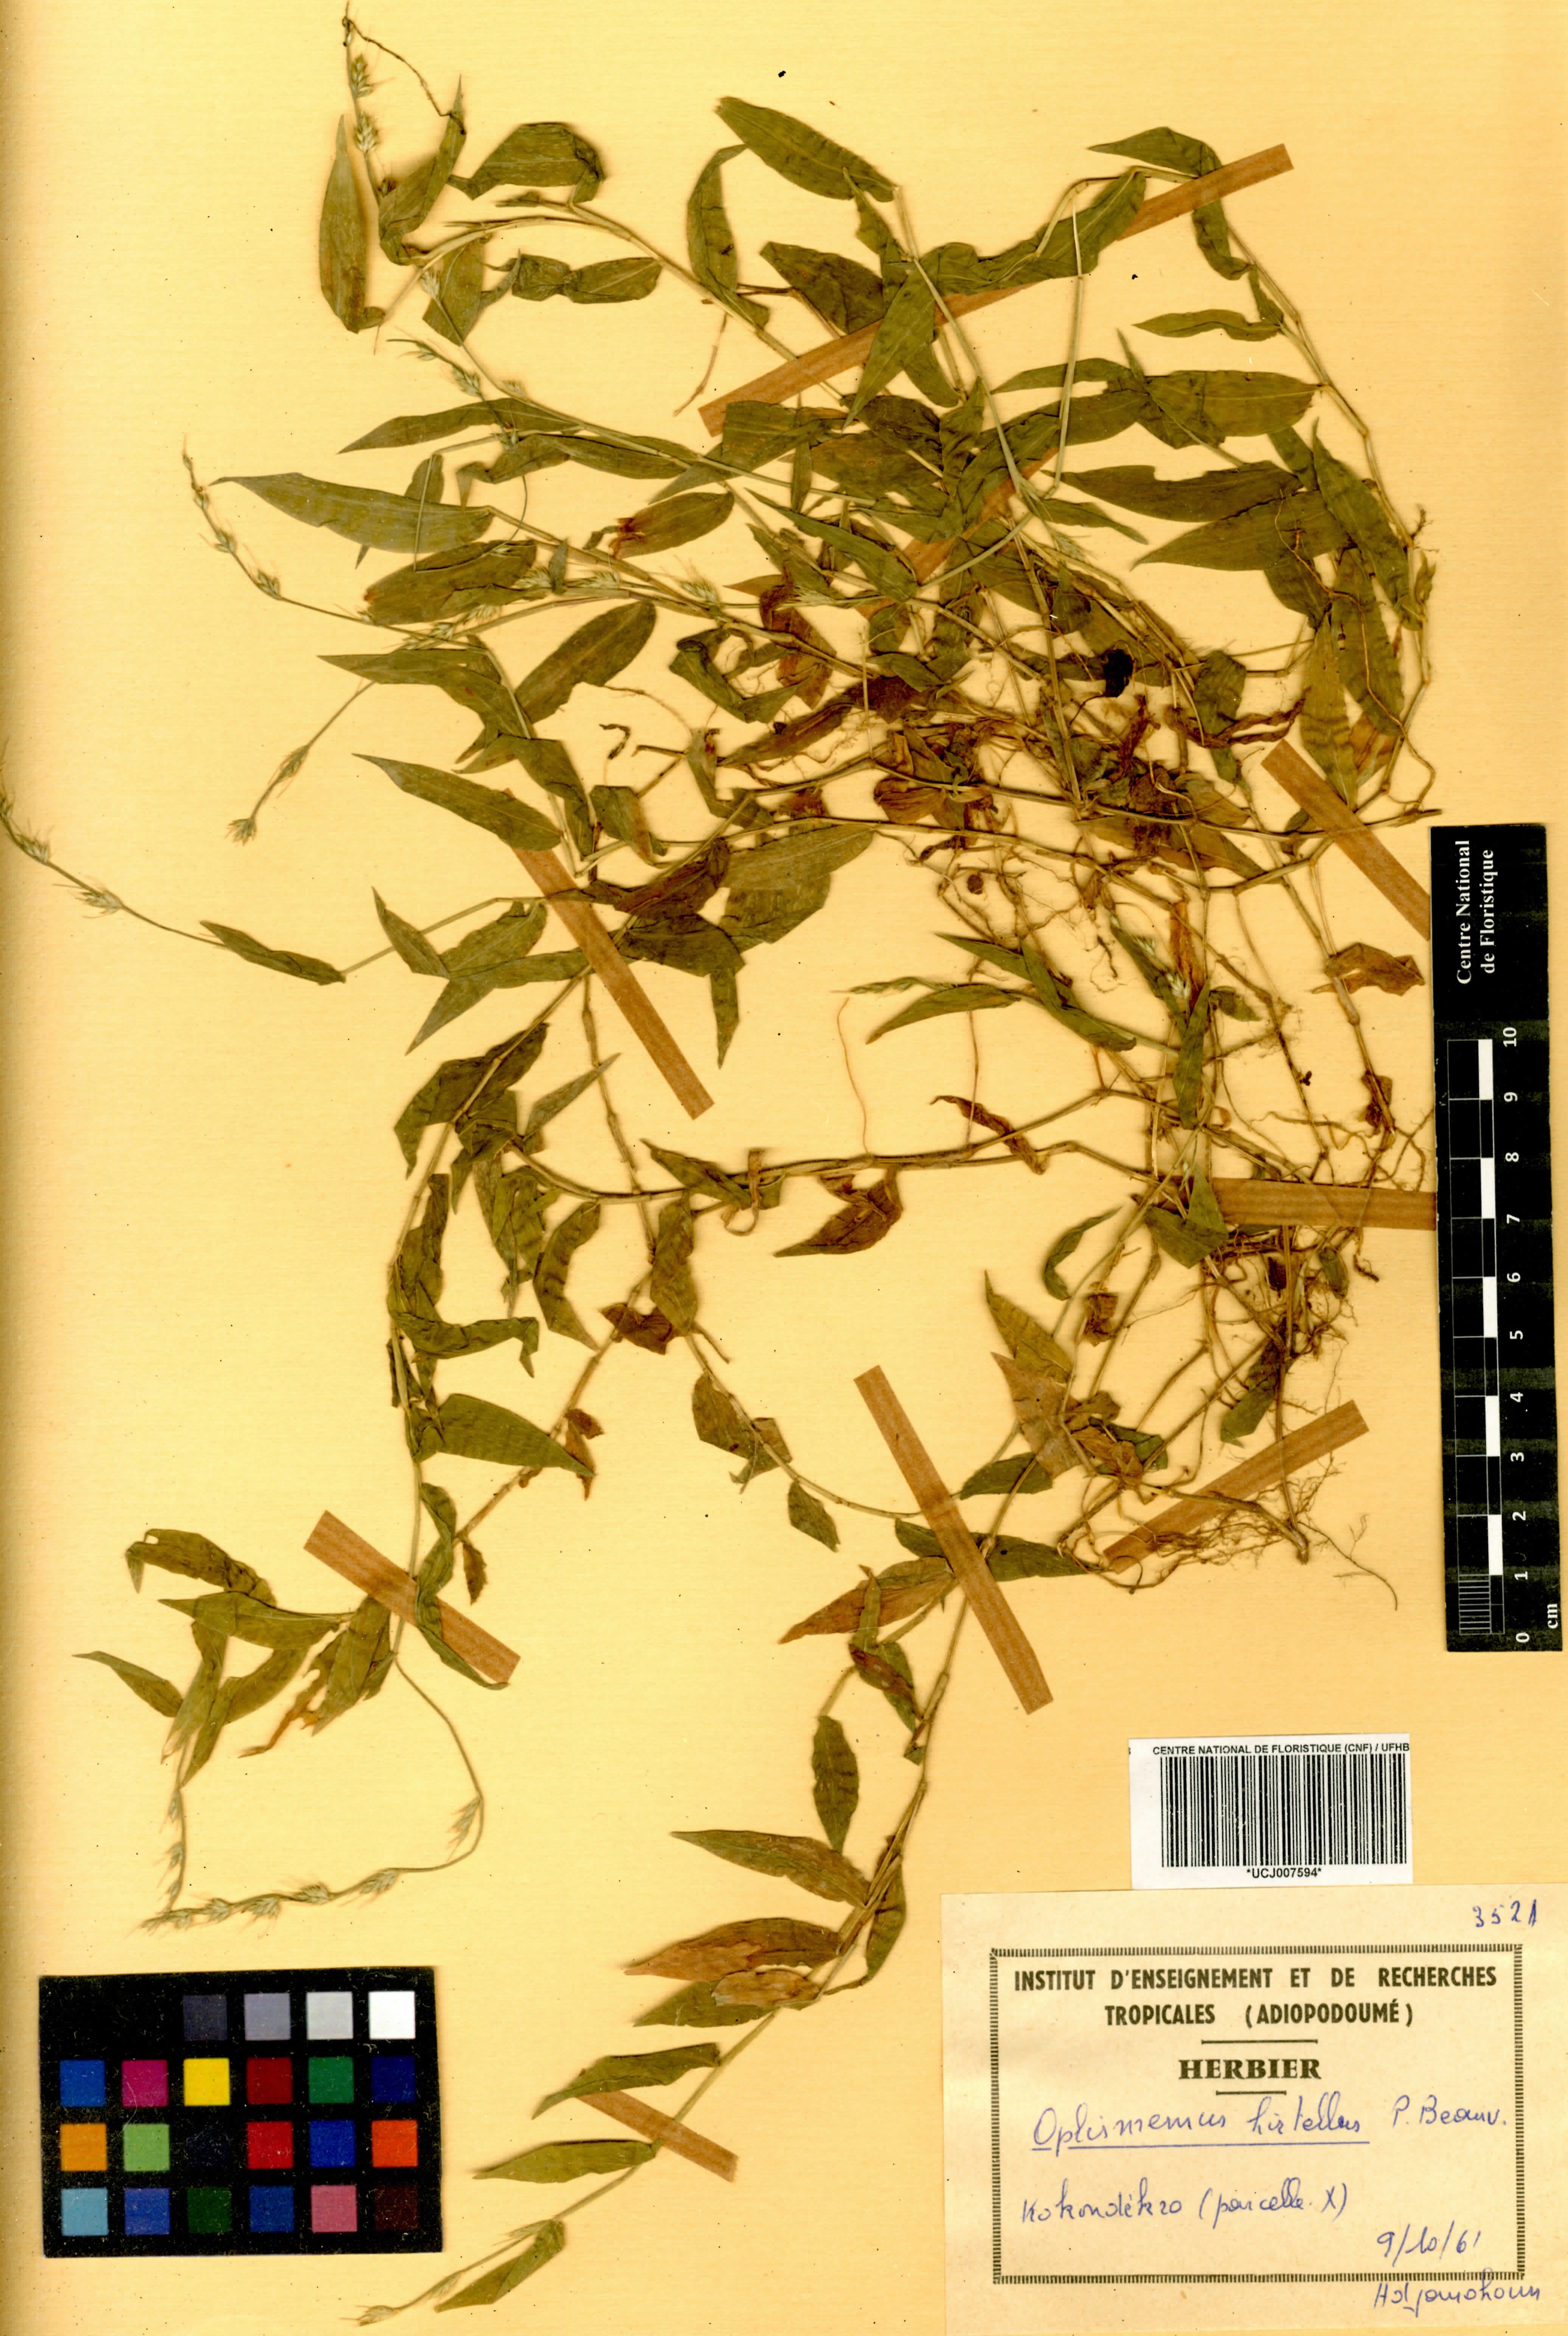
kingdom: Plantae
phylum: Tracheophyta
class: Liliopsida
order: Poales
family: Poaceae
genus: Oplismenus
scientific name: Oplismenus hirtellus
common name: Basketgrass
